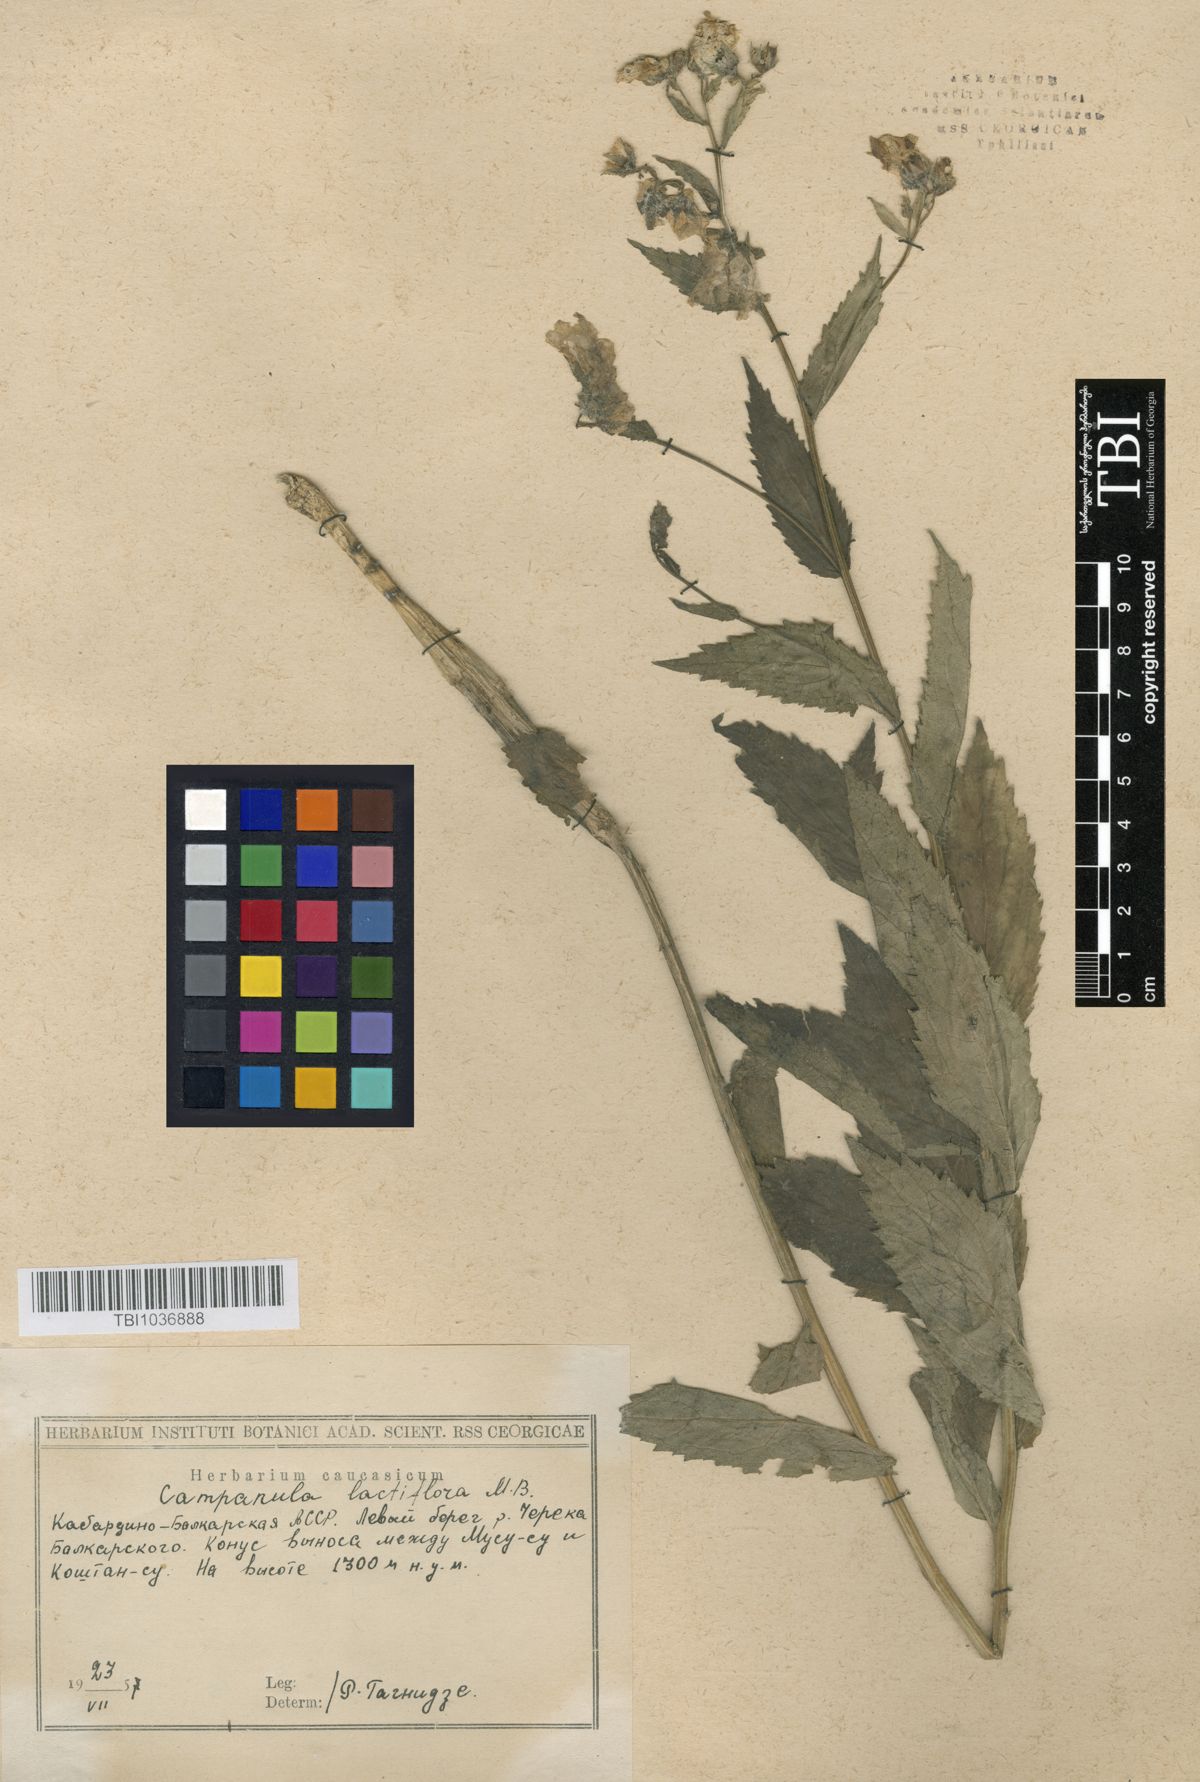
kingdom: Plantae
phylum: Tracheophyta
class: Magnoliopsida
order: Asterales
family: Campanulaceae
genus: Campanula
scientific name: Campanula lactiflora
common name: Milky bellflower
